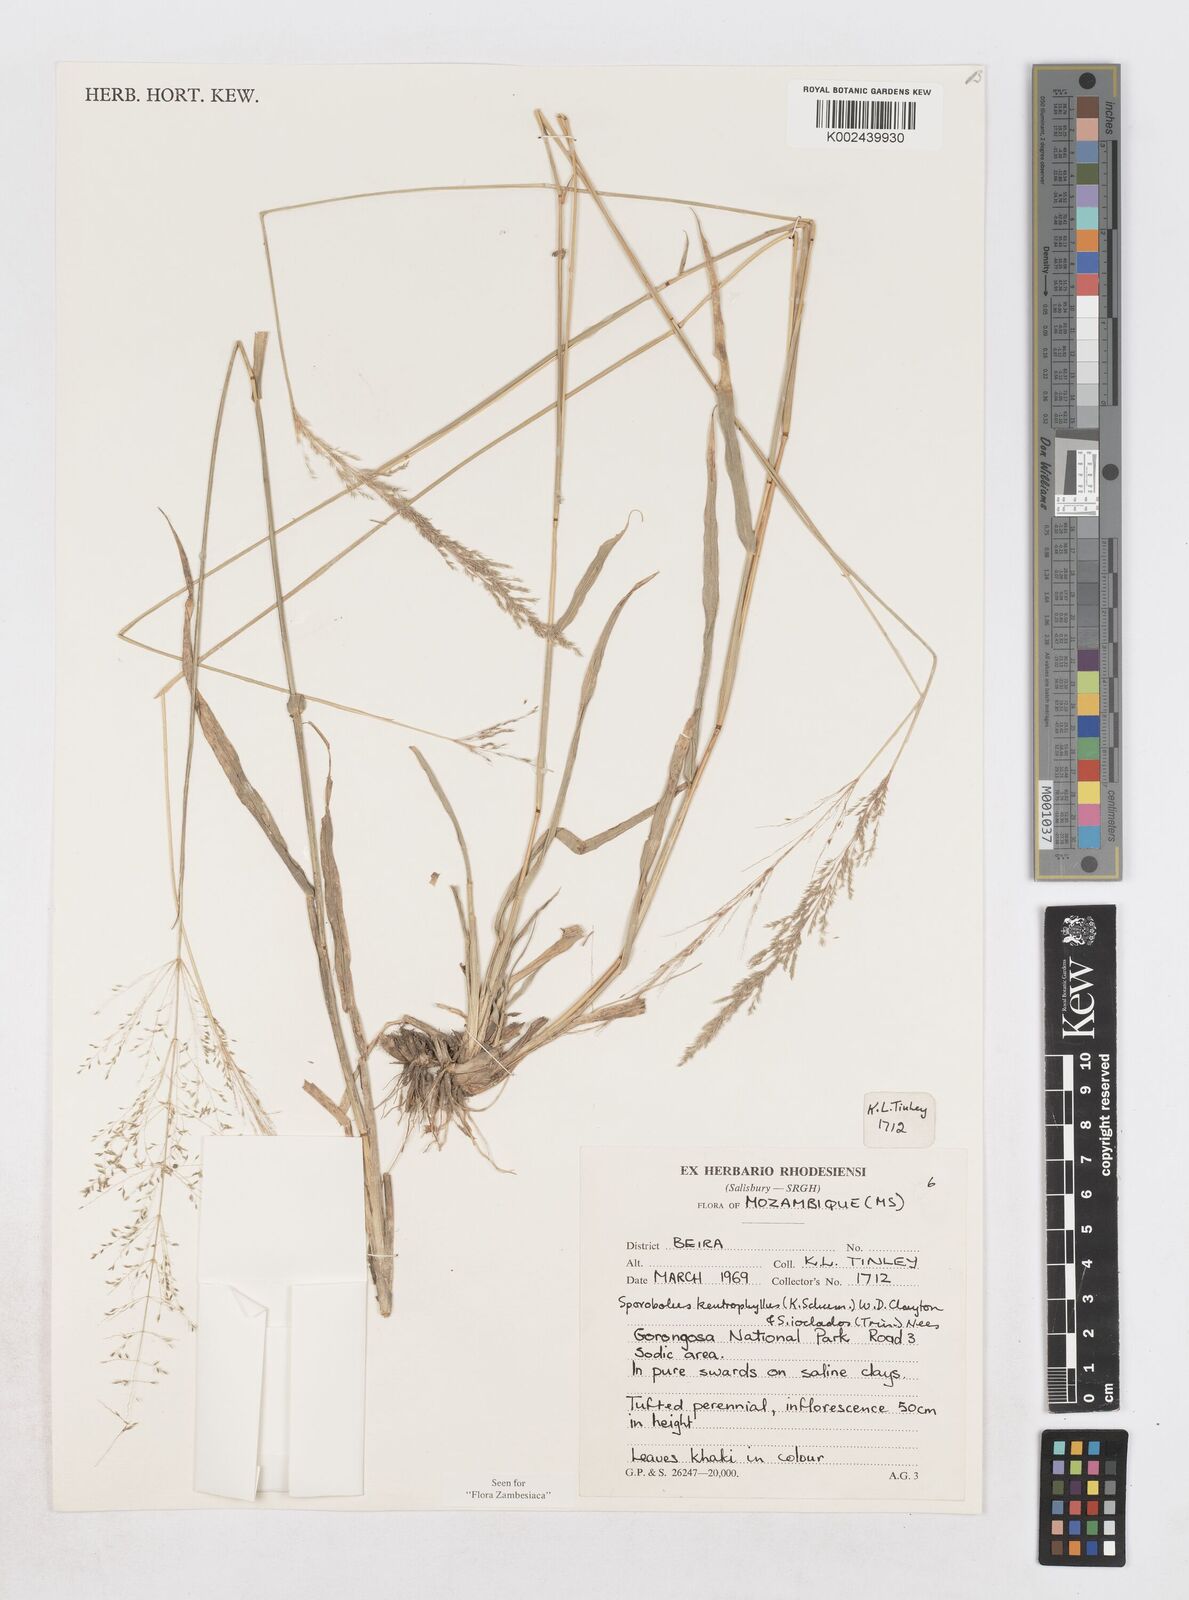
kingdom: Plantae
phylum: Tracheophyta
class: Liliopsida
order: Poales
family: Poaceae
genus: Sporobolus
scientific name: Sporobolus ioclados
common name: Pan dropseed
